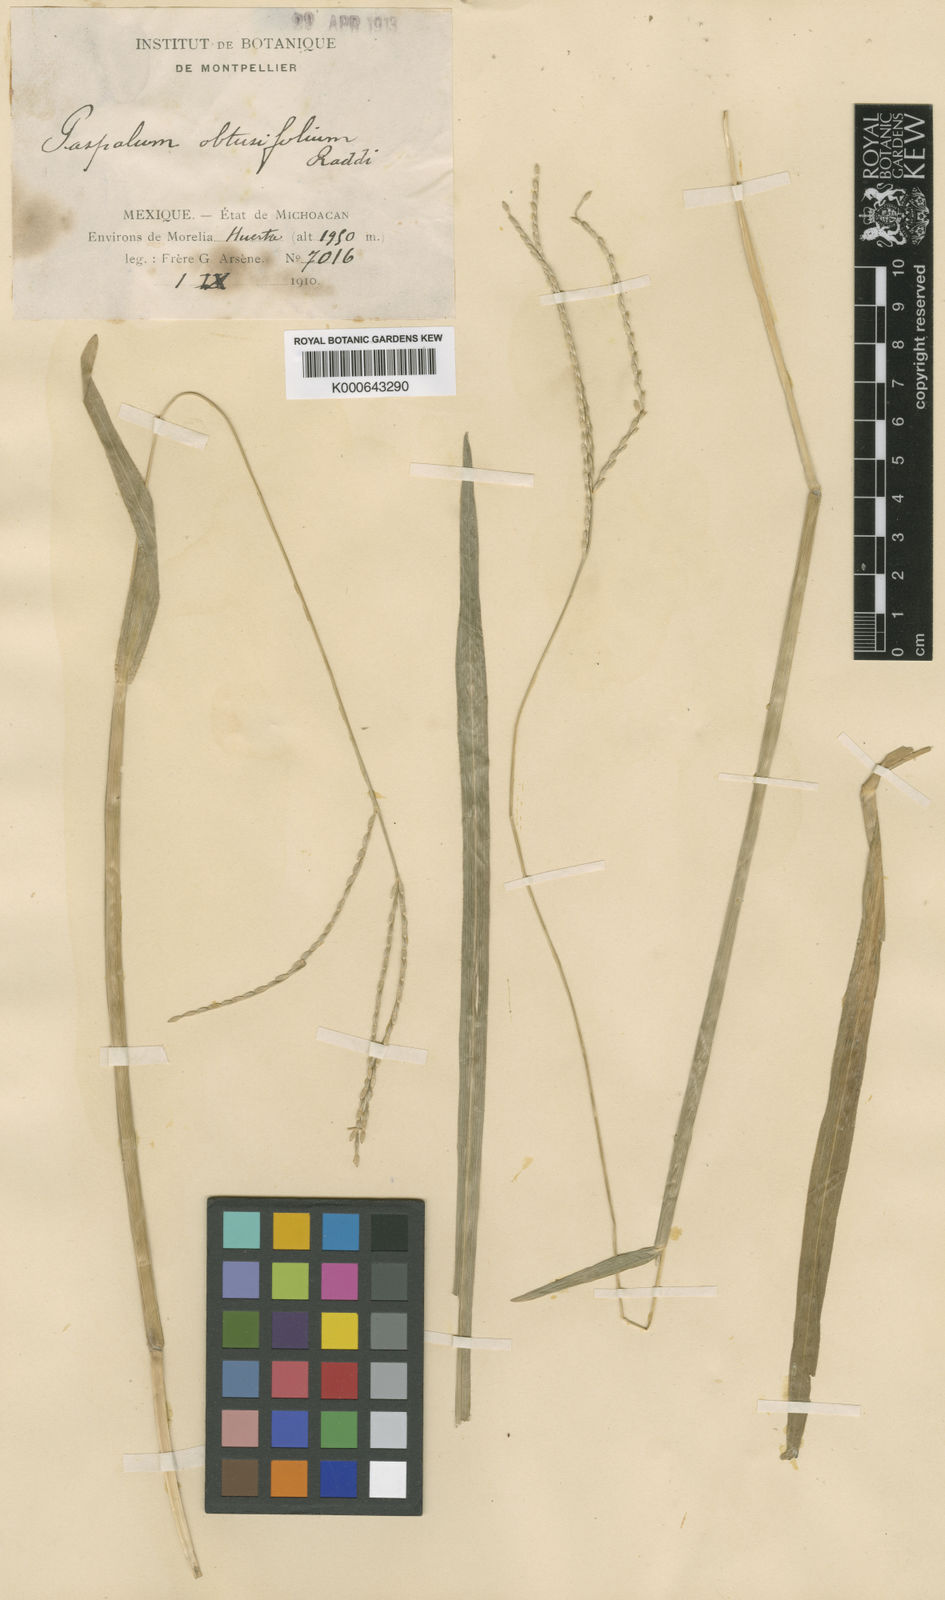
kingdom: Plantae
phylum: Tracheophyta
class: Liliopsida
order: Poales
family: Poaceae
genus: Axonopus
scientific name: Axonopus compressus
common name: American carpet grass
